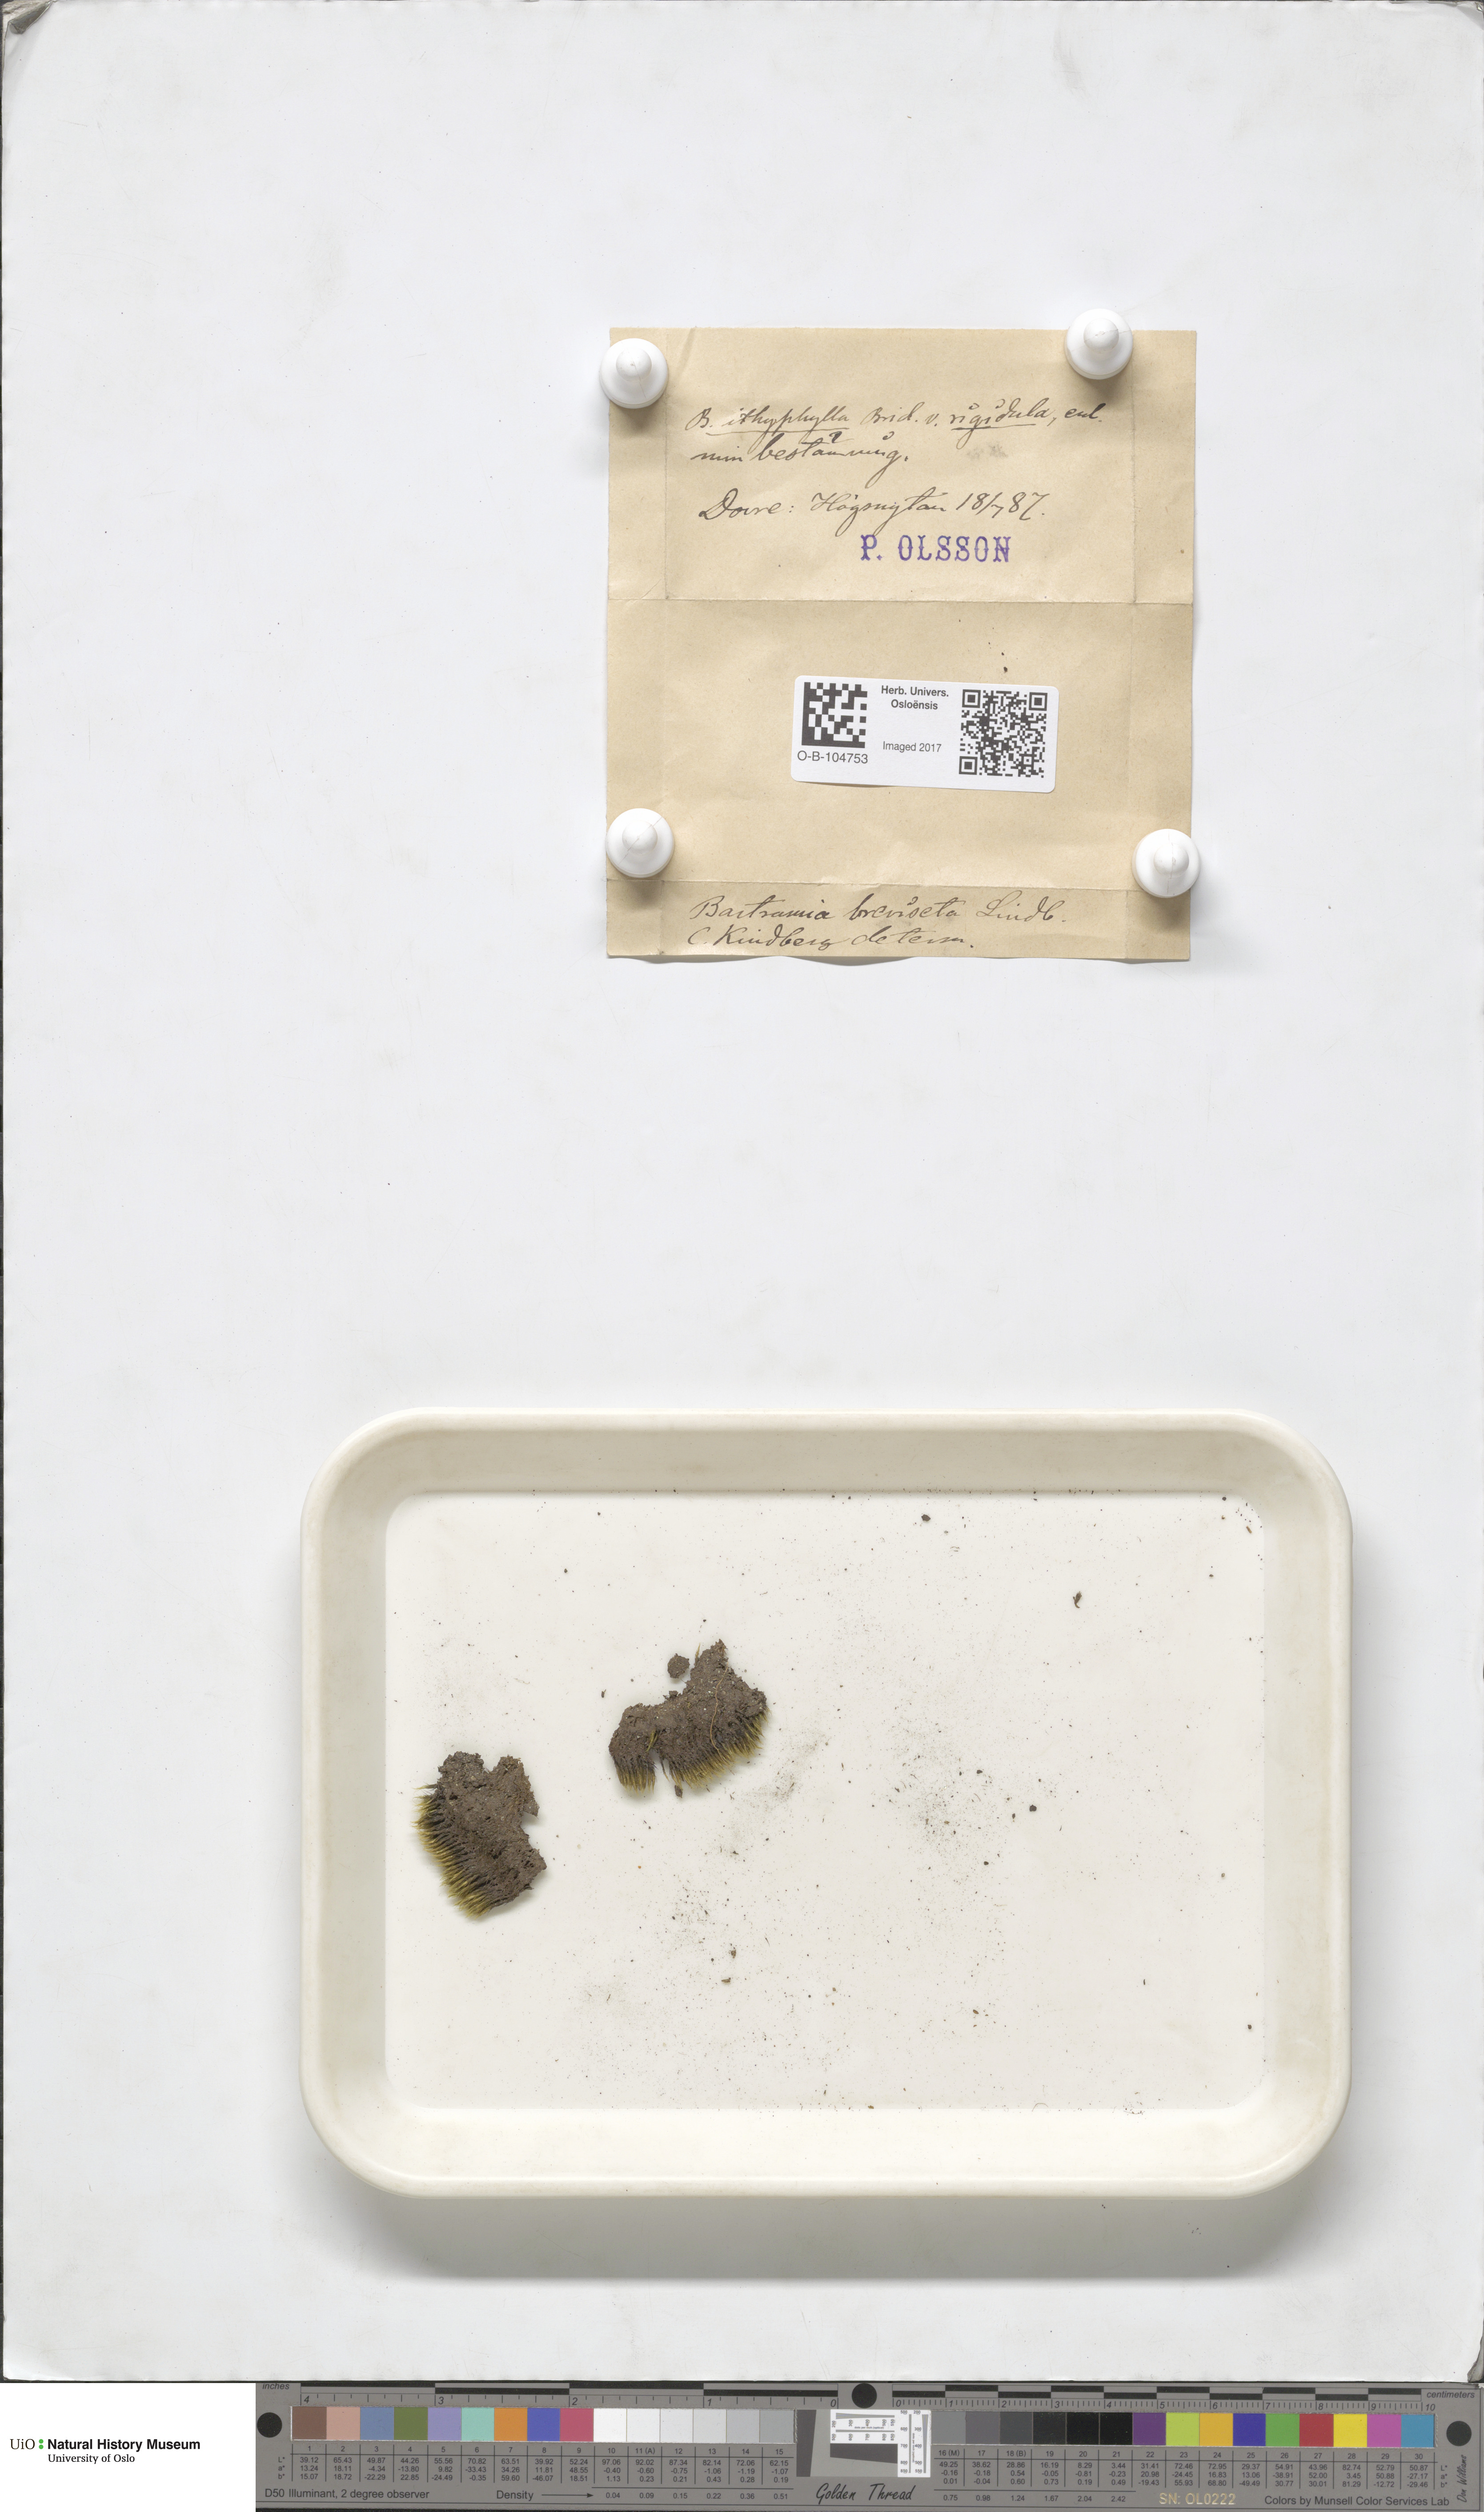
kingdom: Plantae
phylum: Bryophyta
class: Bryopsida
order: Bartramiales
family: Bartramiaceae
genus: Bartramia
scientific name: Bartramia breviseta
